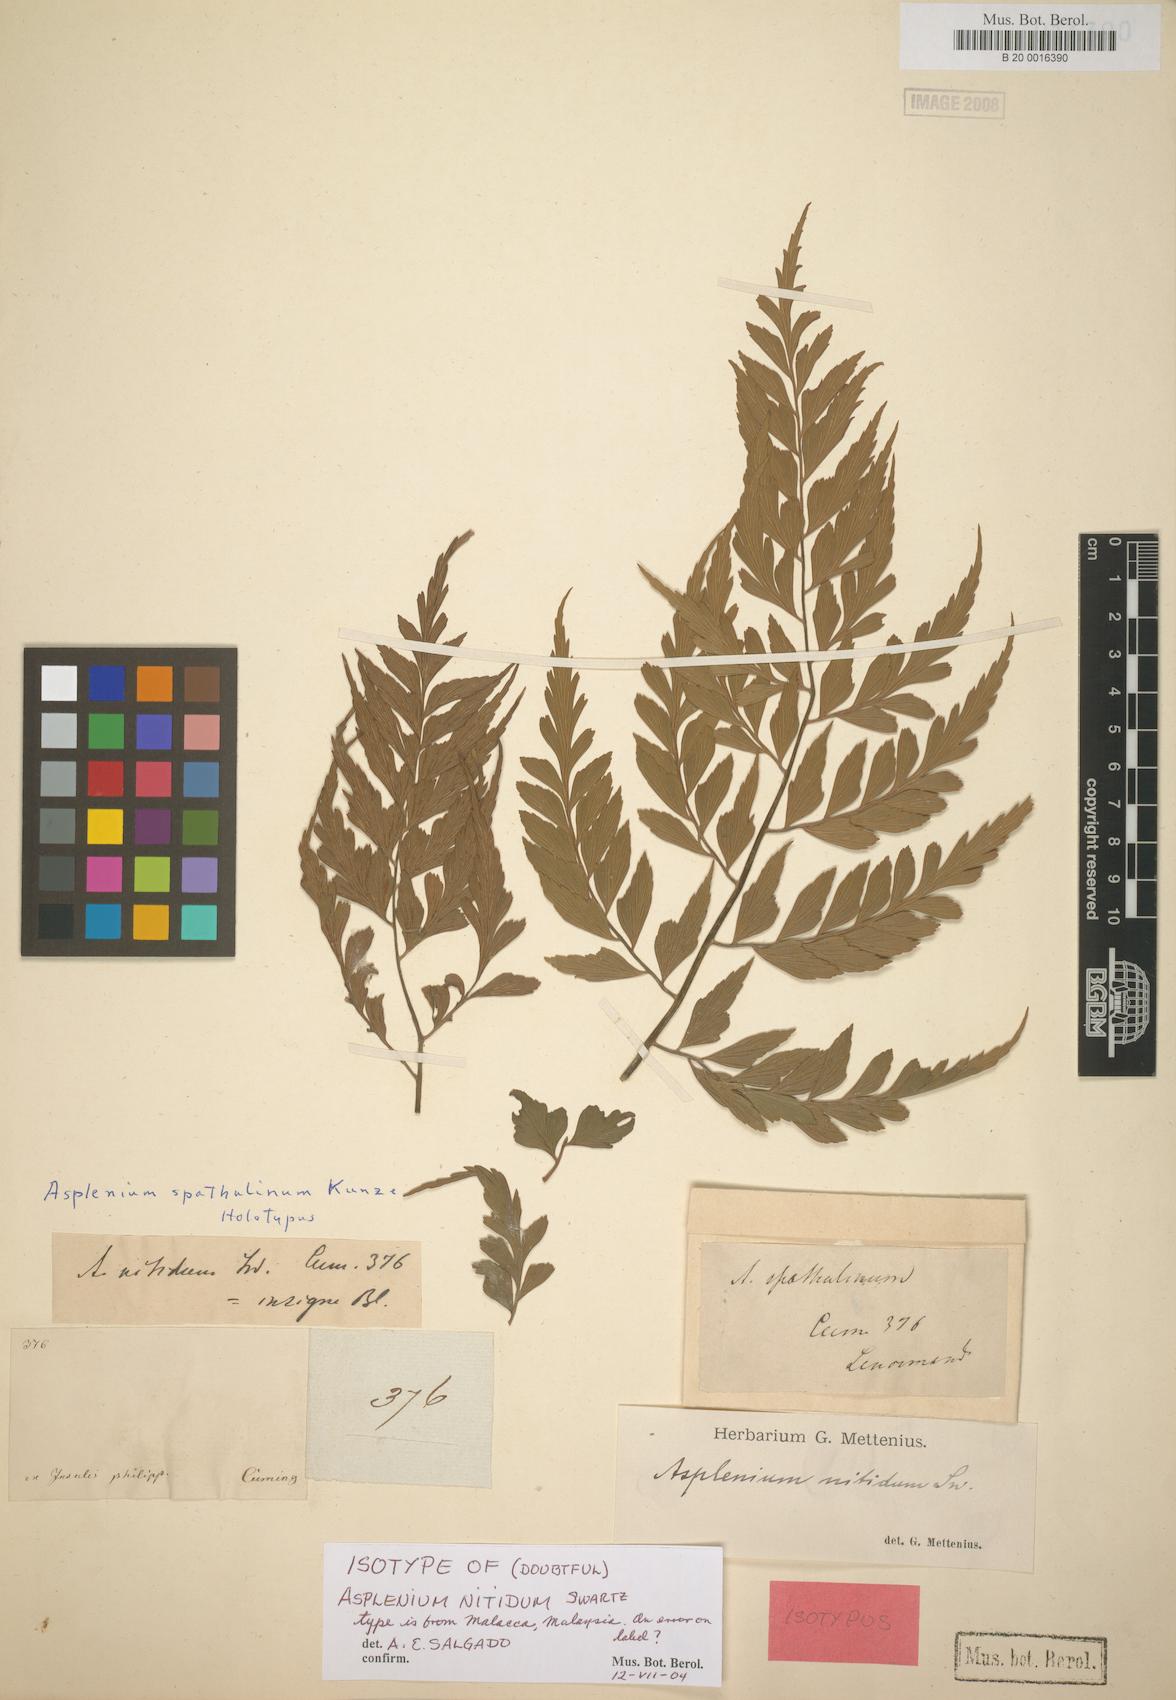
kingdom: Plantae
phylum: Tracheophyta
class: Polypodiopsida
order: Polypodiales
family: Aspleniaceae
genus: Asplenium
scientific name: Asplenium nitidum
